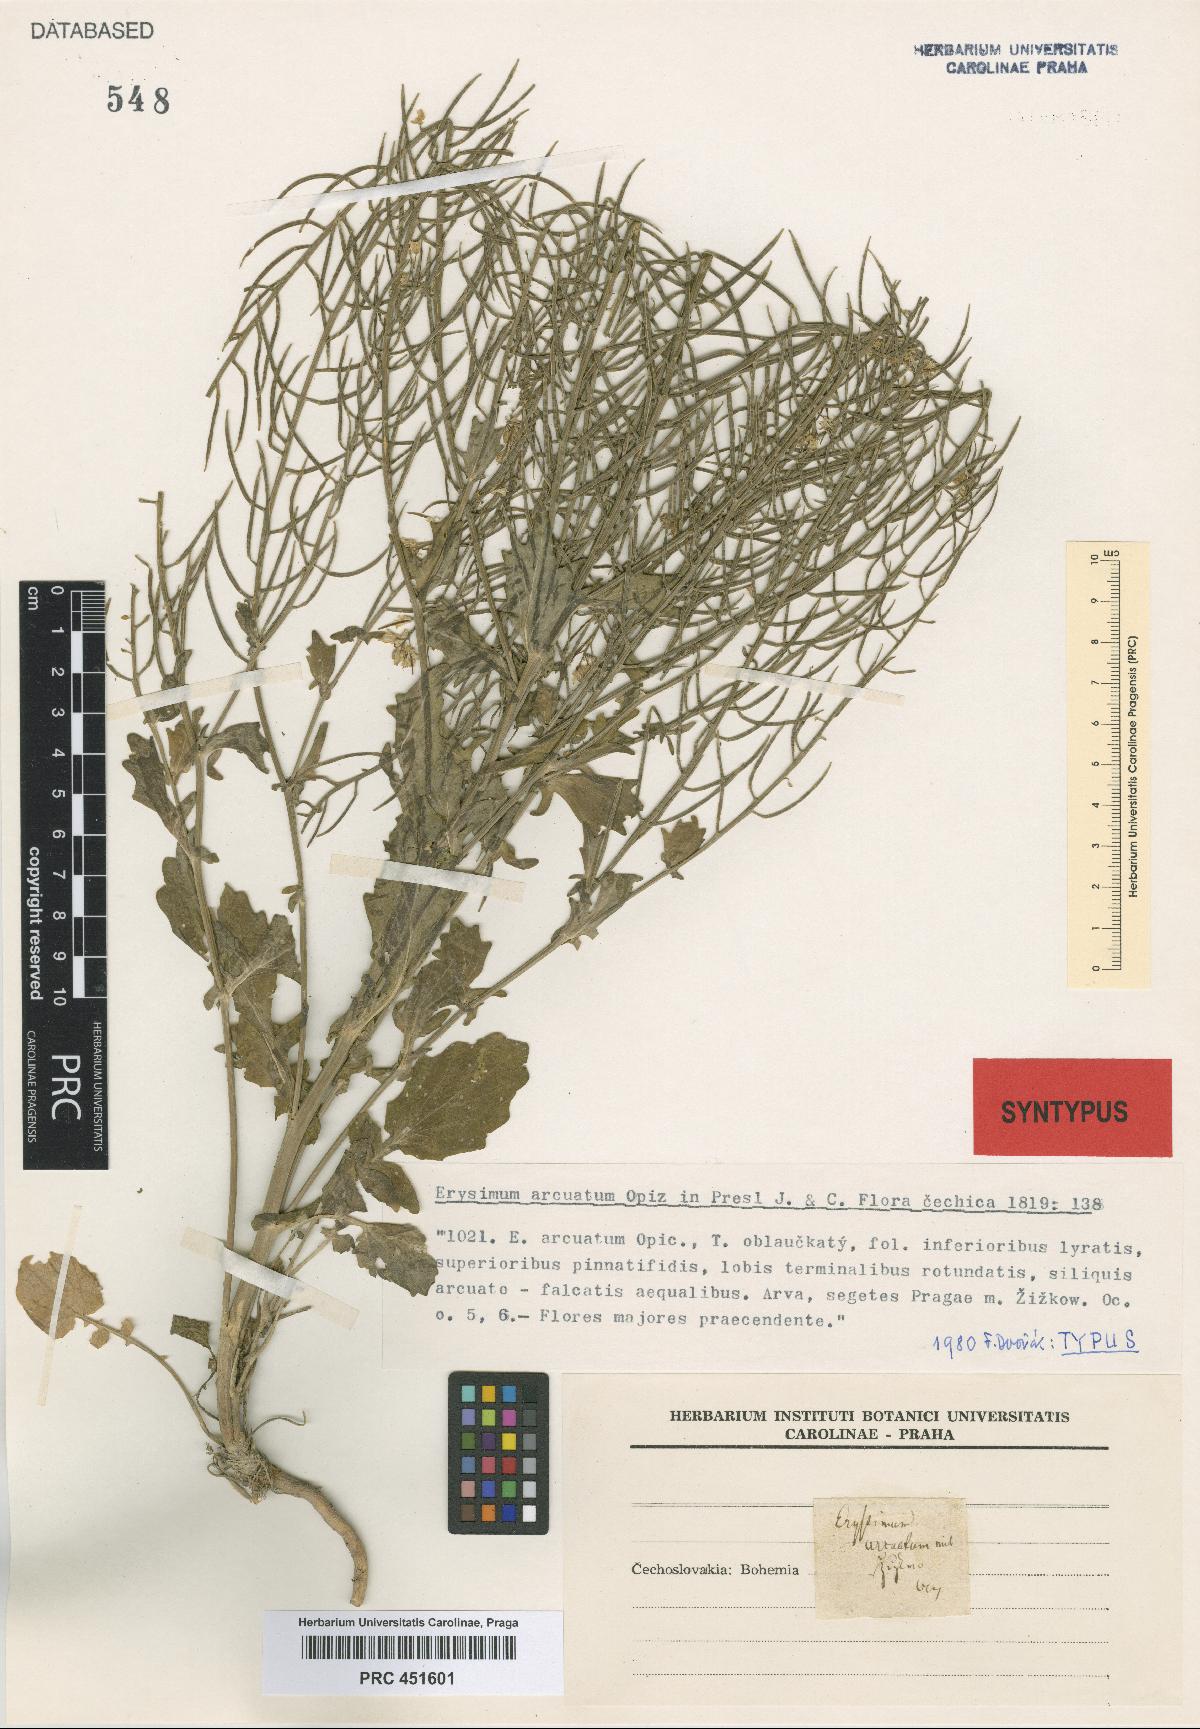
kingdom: Plantae
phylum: Tracheophyta
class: Magnoliopsida
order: Brassicales
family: Brassicaceae
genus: Barbarea
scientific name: Barbarea vulgaris
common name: Cressy-greens
